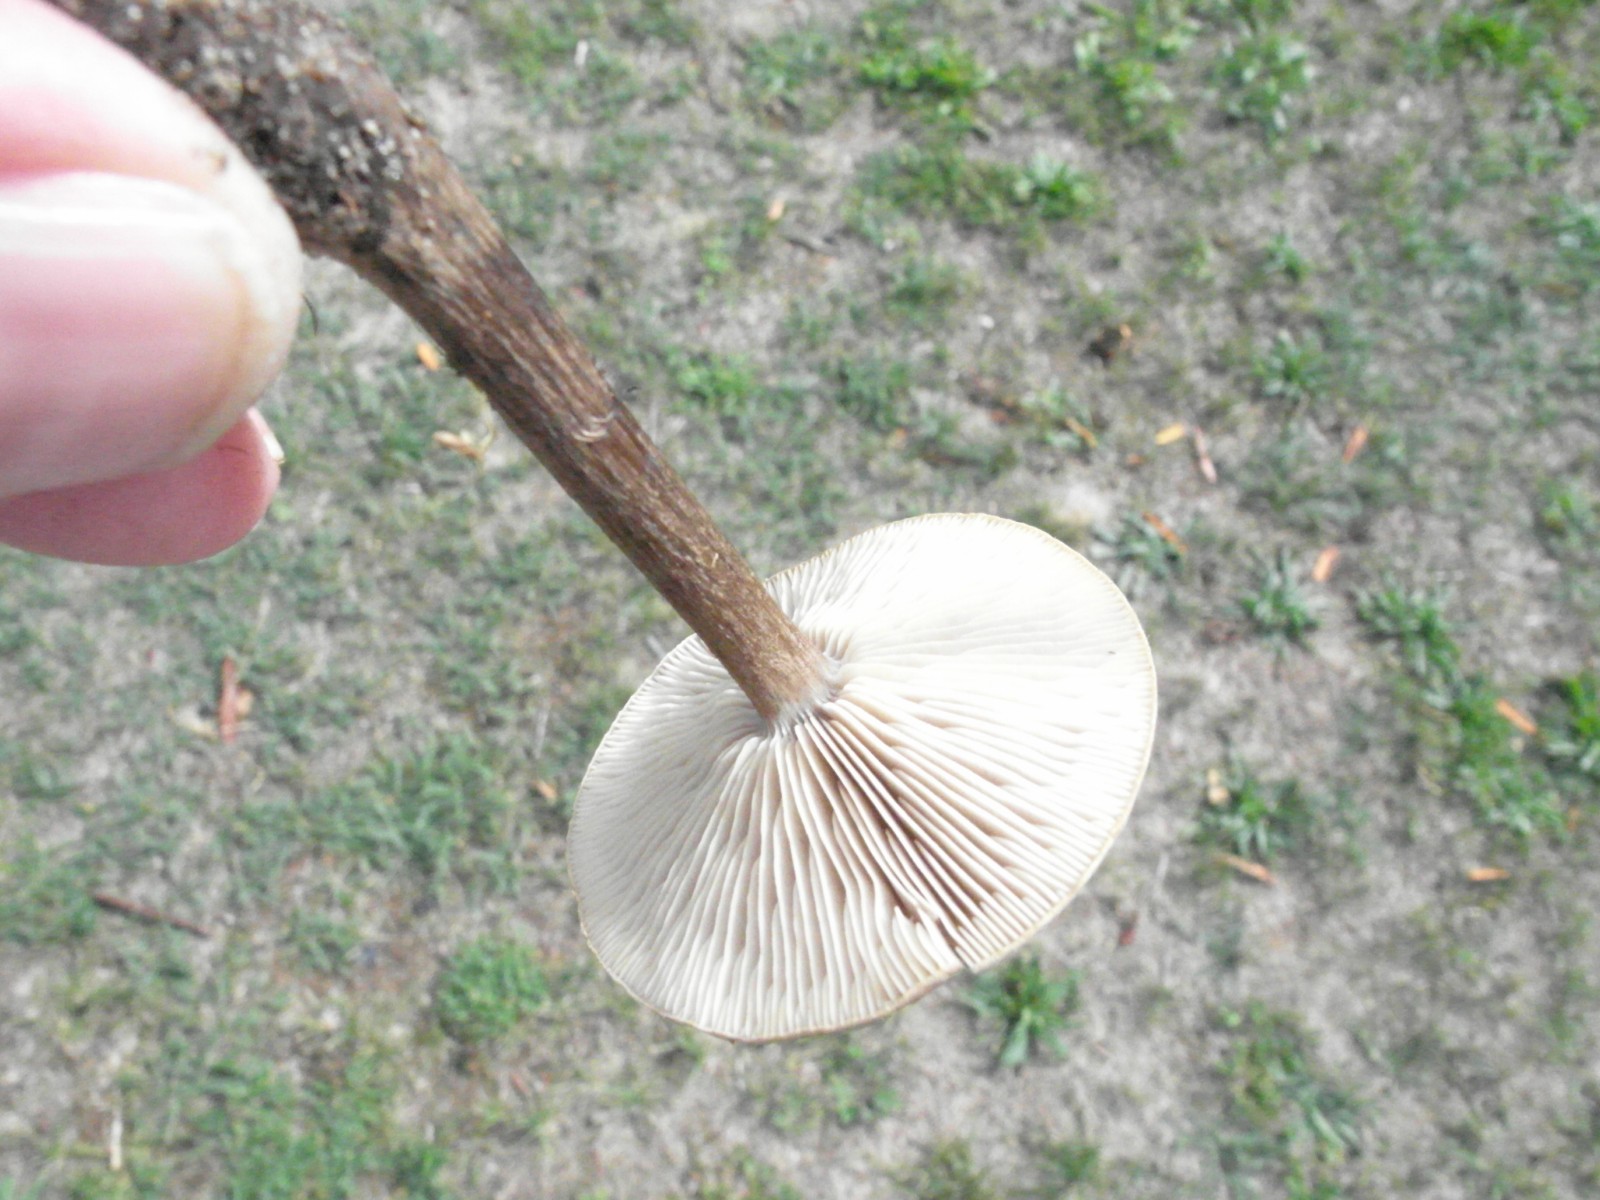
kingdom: Fungi
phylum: Basidiomycota
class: Agaricomycetes
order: Agaricales
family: Tricholomataceae
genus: Melanoleuca
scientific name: Melanoleuca
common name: munkehat
